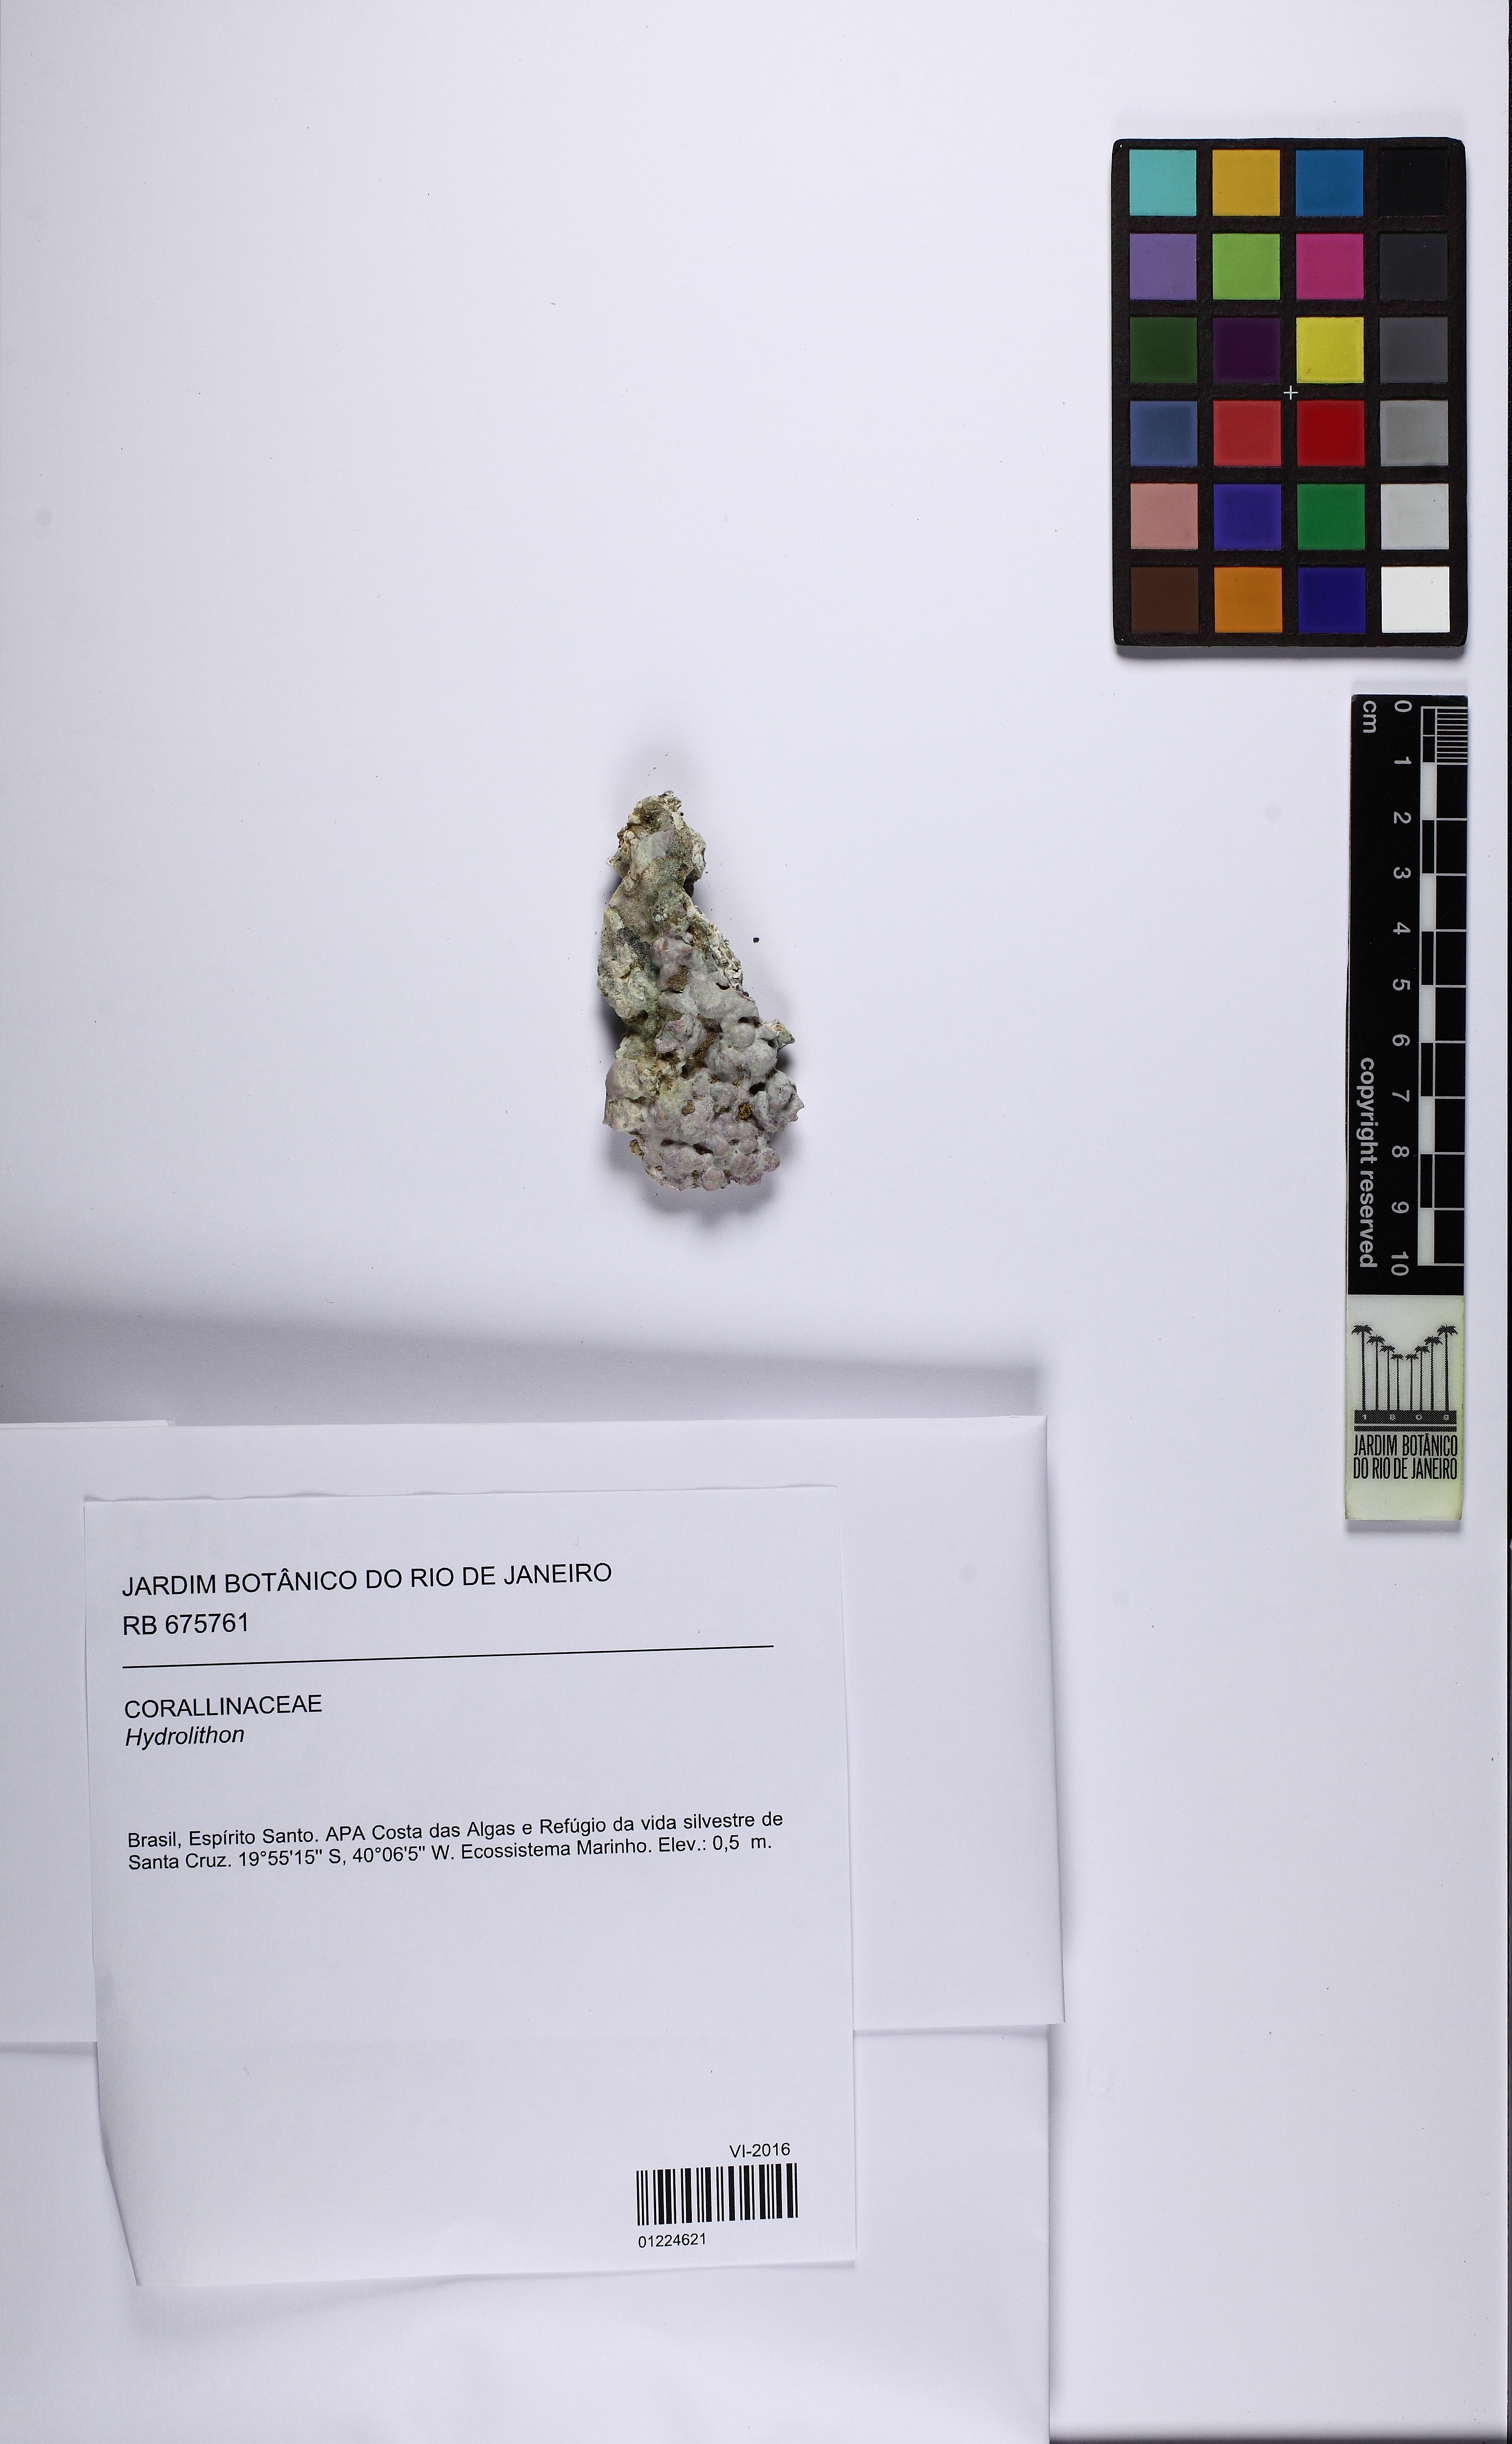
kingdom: Plantae
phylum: Rhodophyta
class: Florideophyceae
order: Corallinales
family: Hydrolithaceae
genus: Hydrolithon
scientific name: Hydrolithon
